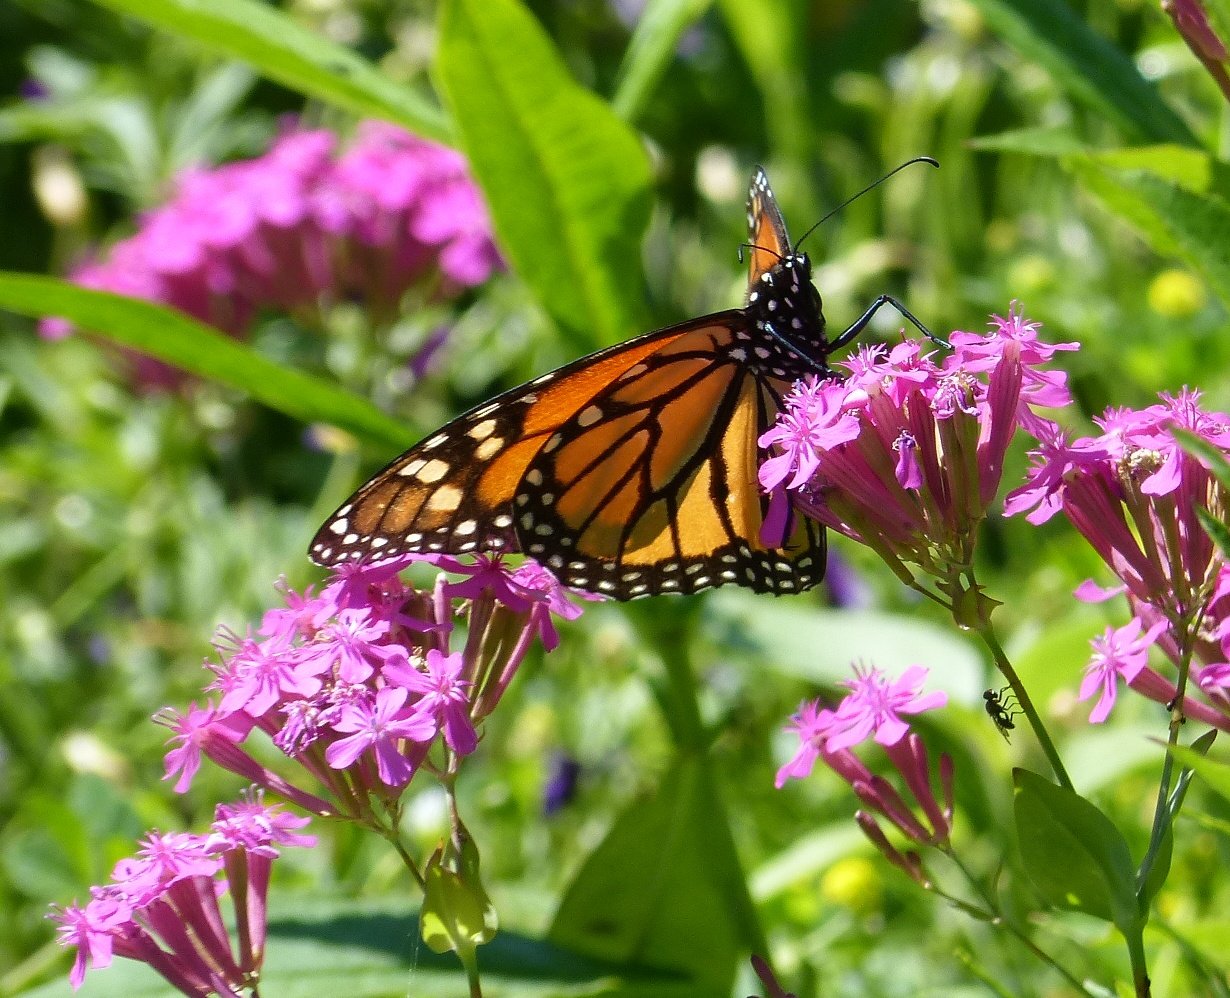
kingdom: Animalia
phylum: Arthropoda
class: Insecta
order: Lepidoptera
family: Nymphalidae
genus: Danaus
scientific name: Danaus plexippus
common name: Monarch
